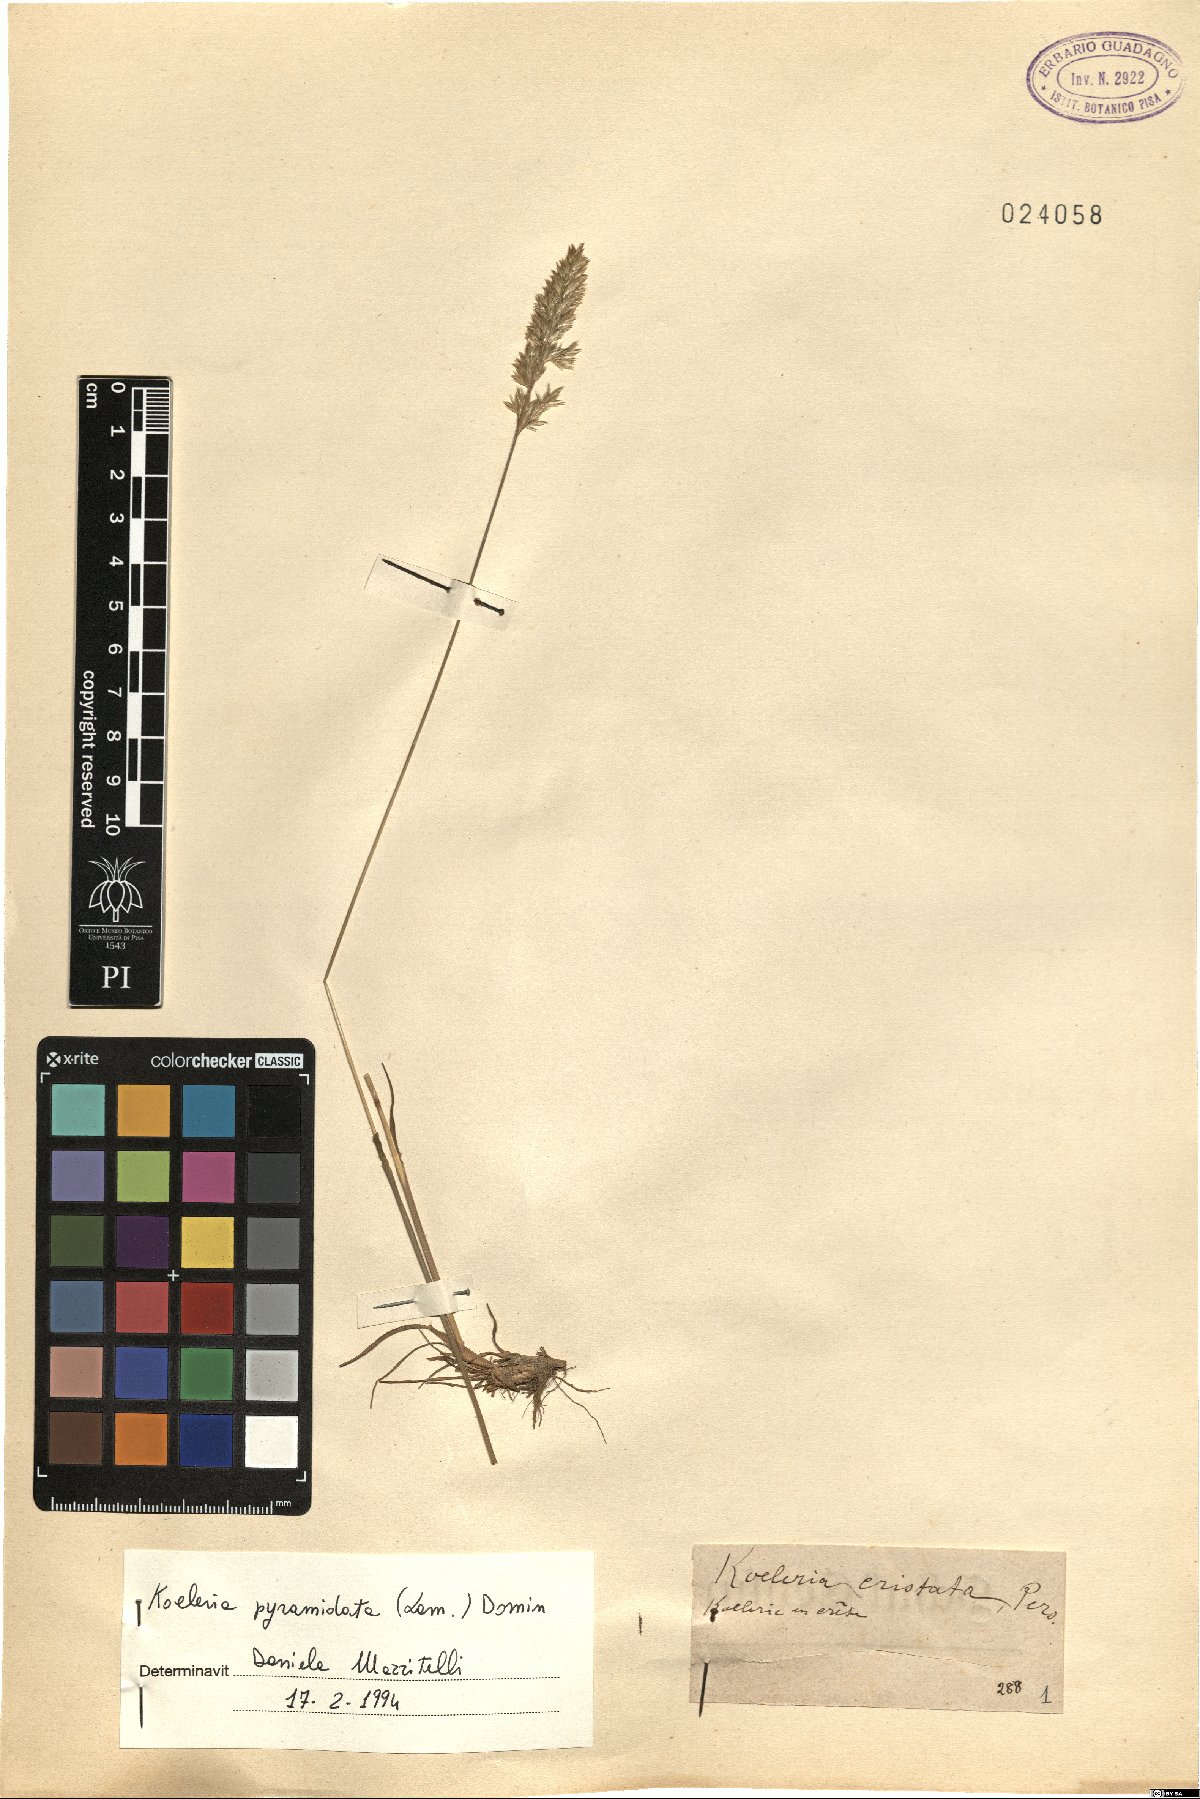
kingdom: Plantae
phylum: Tracheophyta
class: Liliopsida
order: Poales
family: Poaceae
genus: Koeleria
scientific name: Koeleria pyramidata
